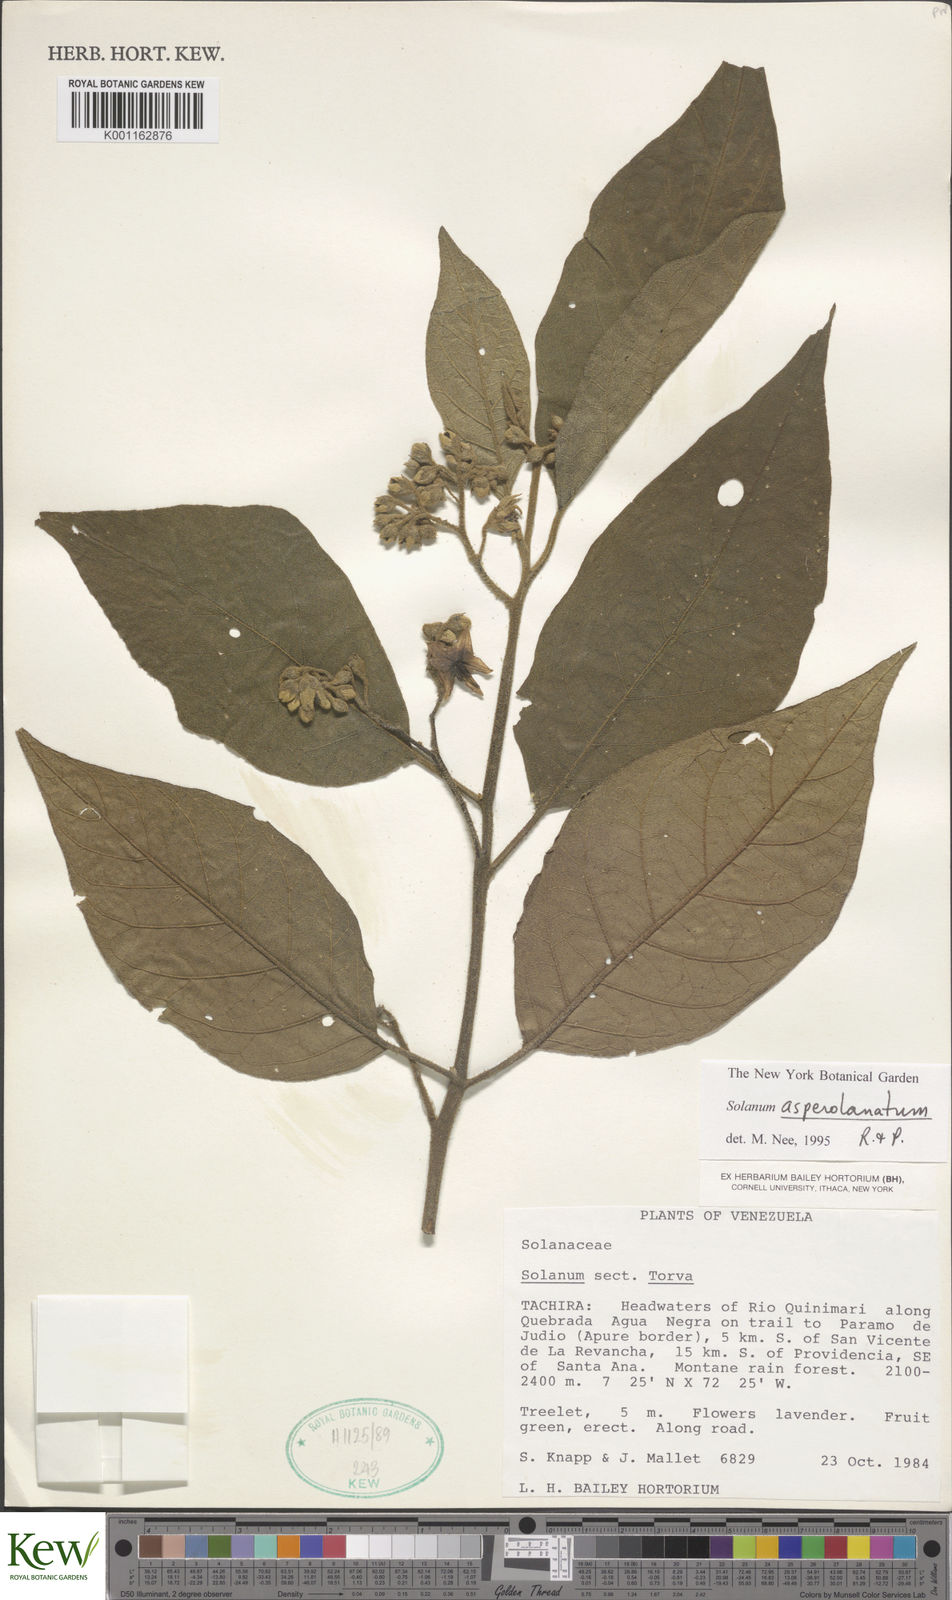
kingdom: Plantae
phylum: Tracheophyta
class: Magnoliopsida
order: Solanales
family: Solanaceae
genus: Solanum
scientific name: Solanum asperolanatum
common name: Devil's-fig
